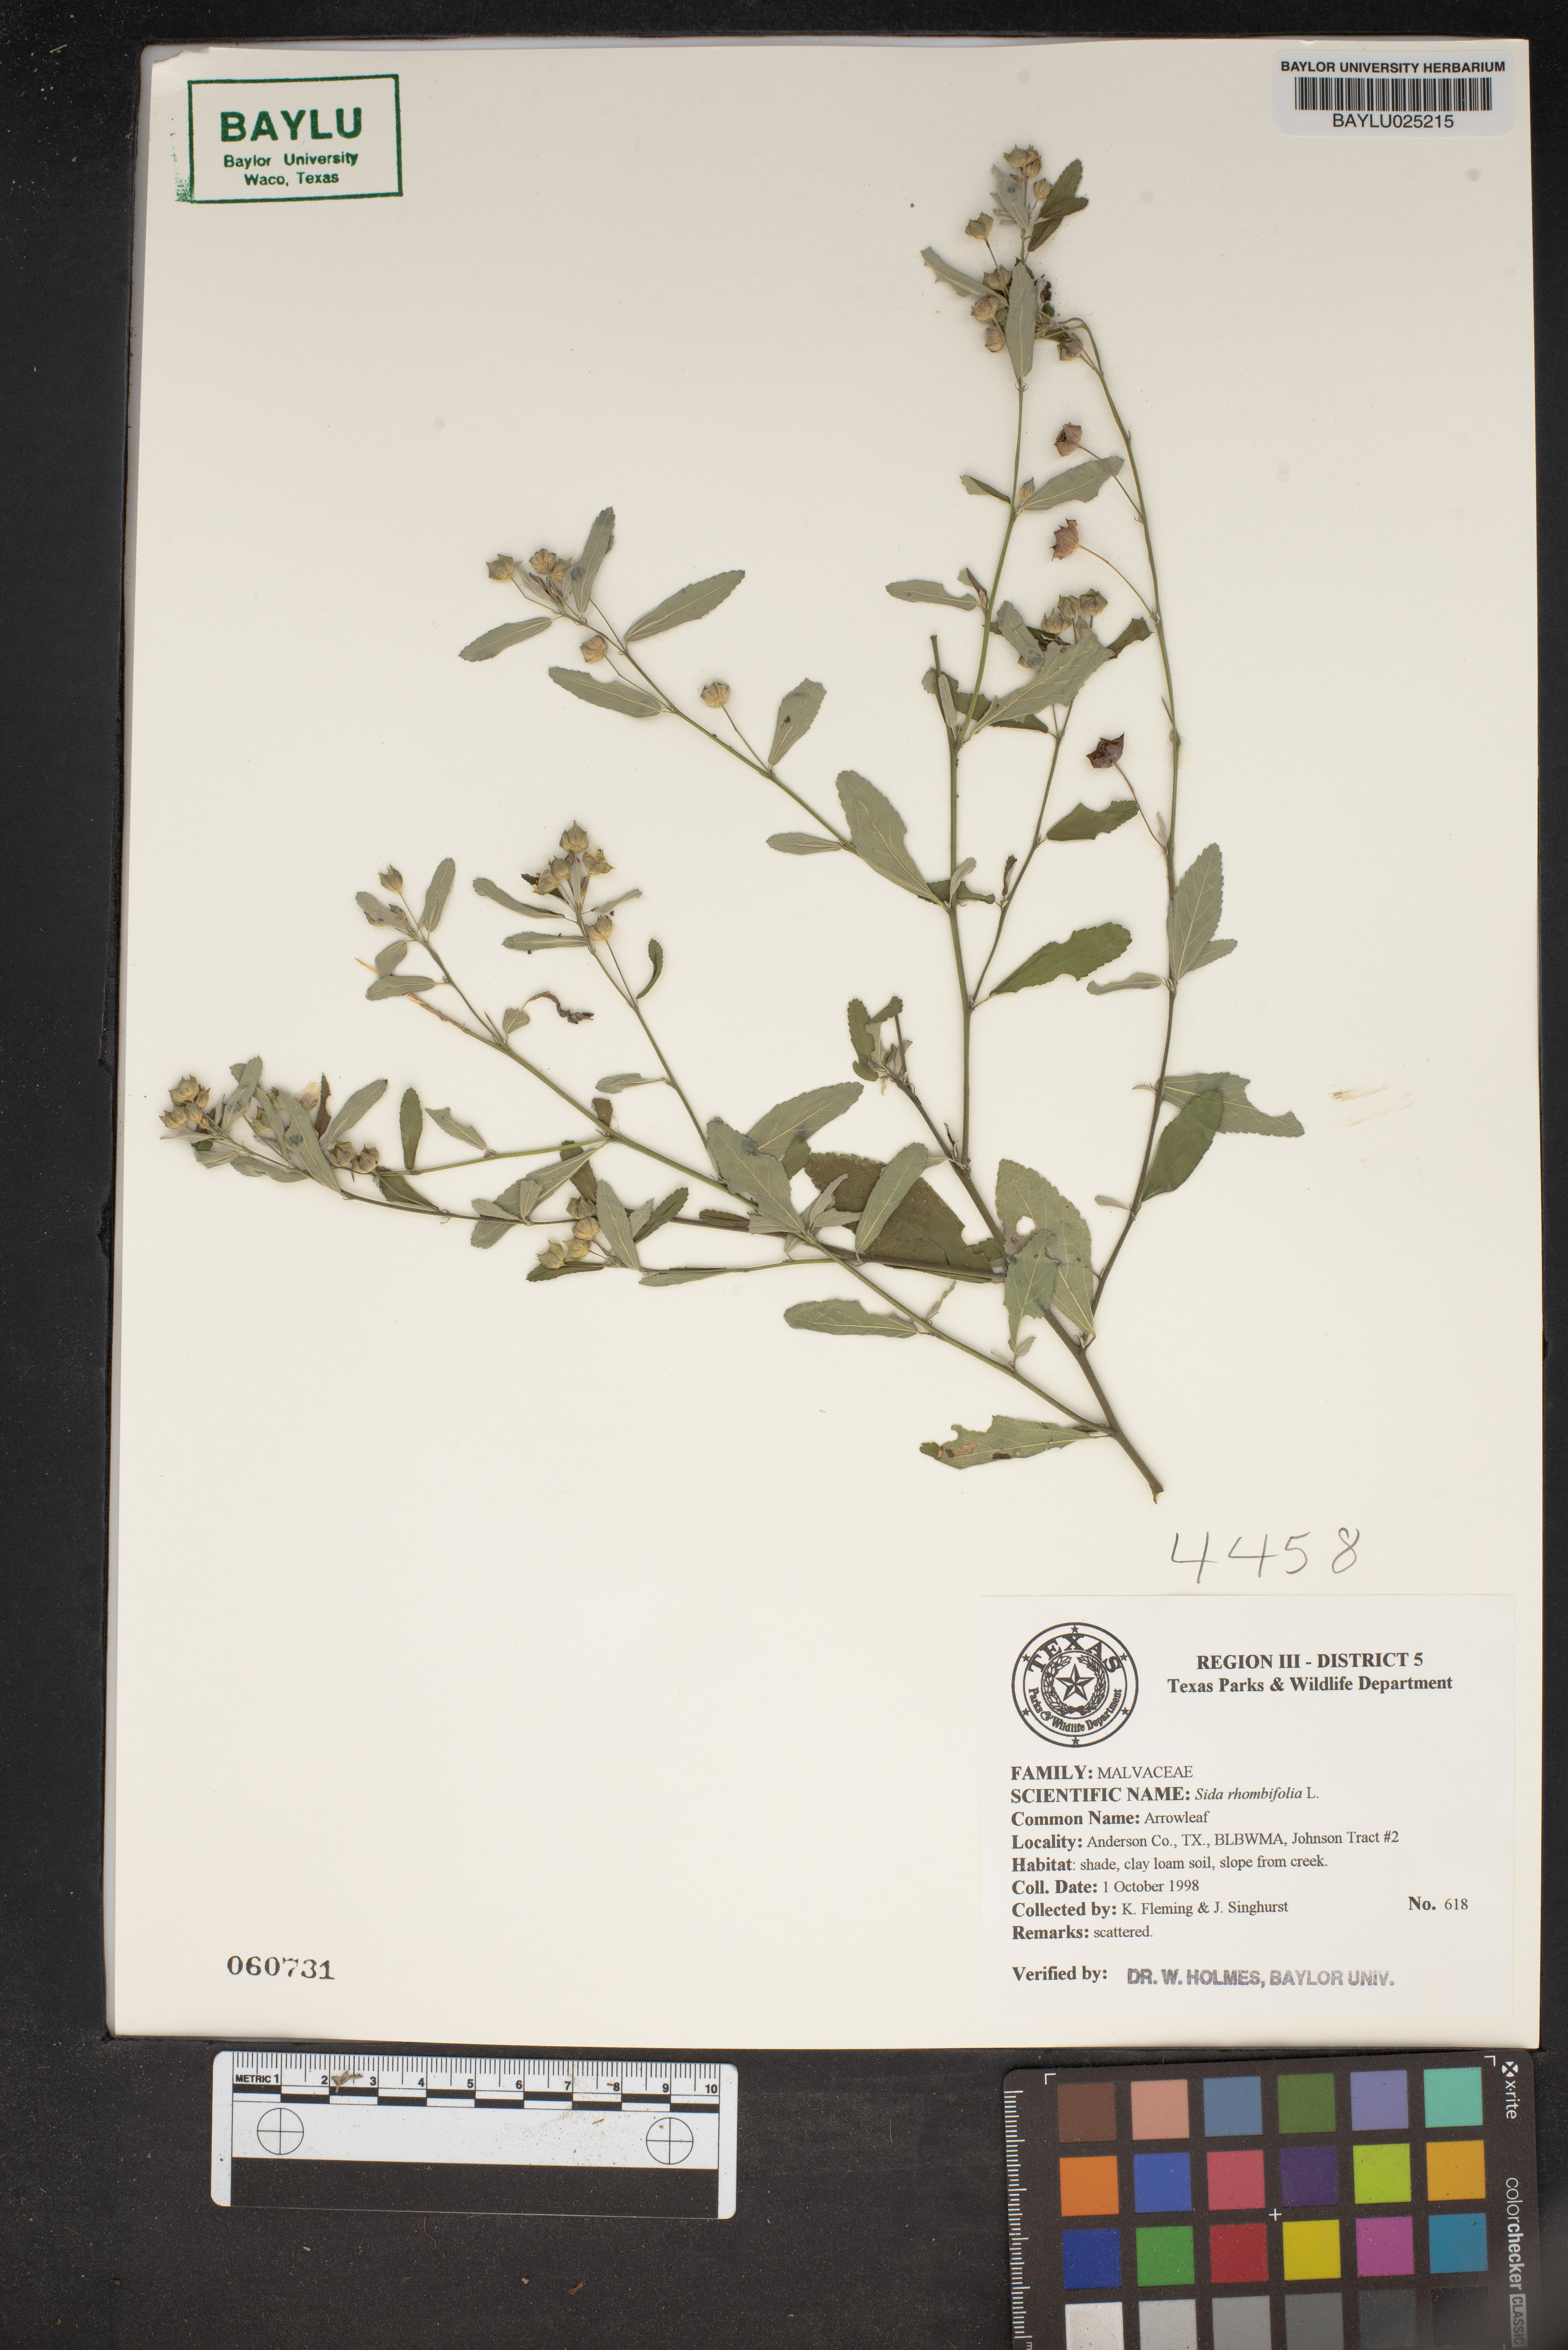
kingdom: Plantae
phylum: Tracheophyta
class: Magnoliopsida
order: Malvales
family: Malvaceae
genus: Sida
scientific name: Sida rhombifolia
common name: Queensland-hemp
